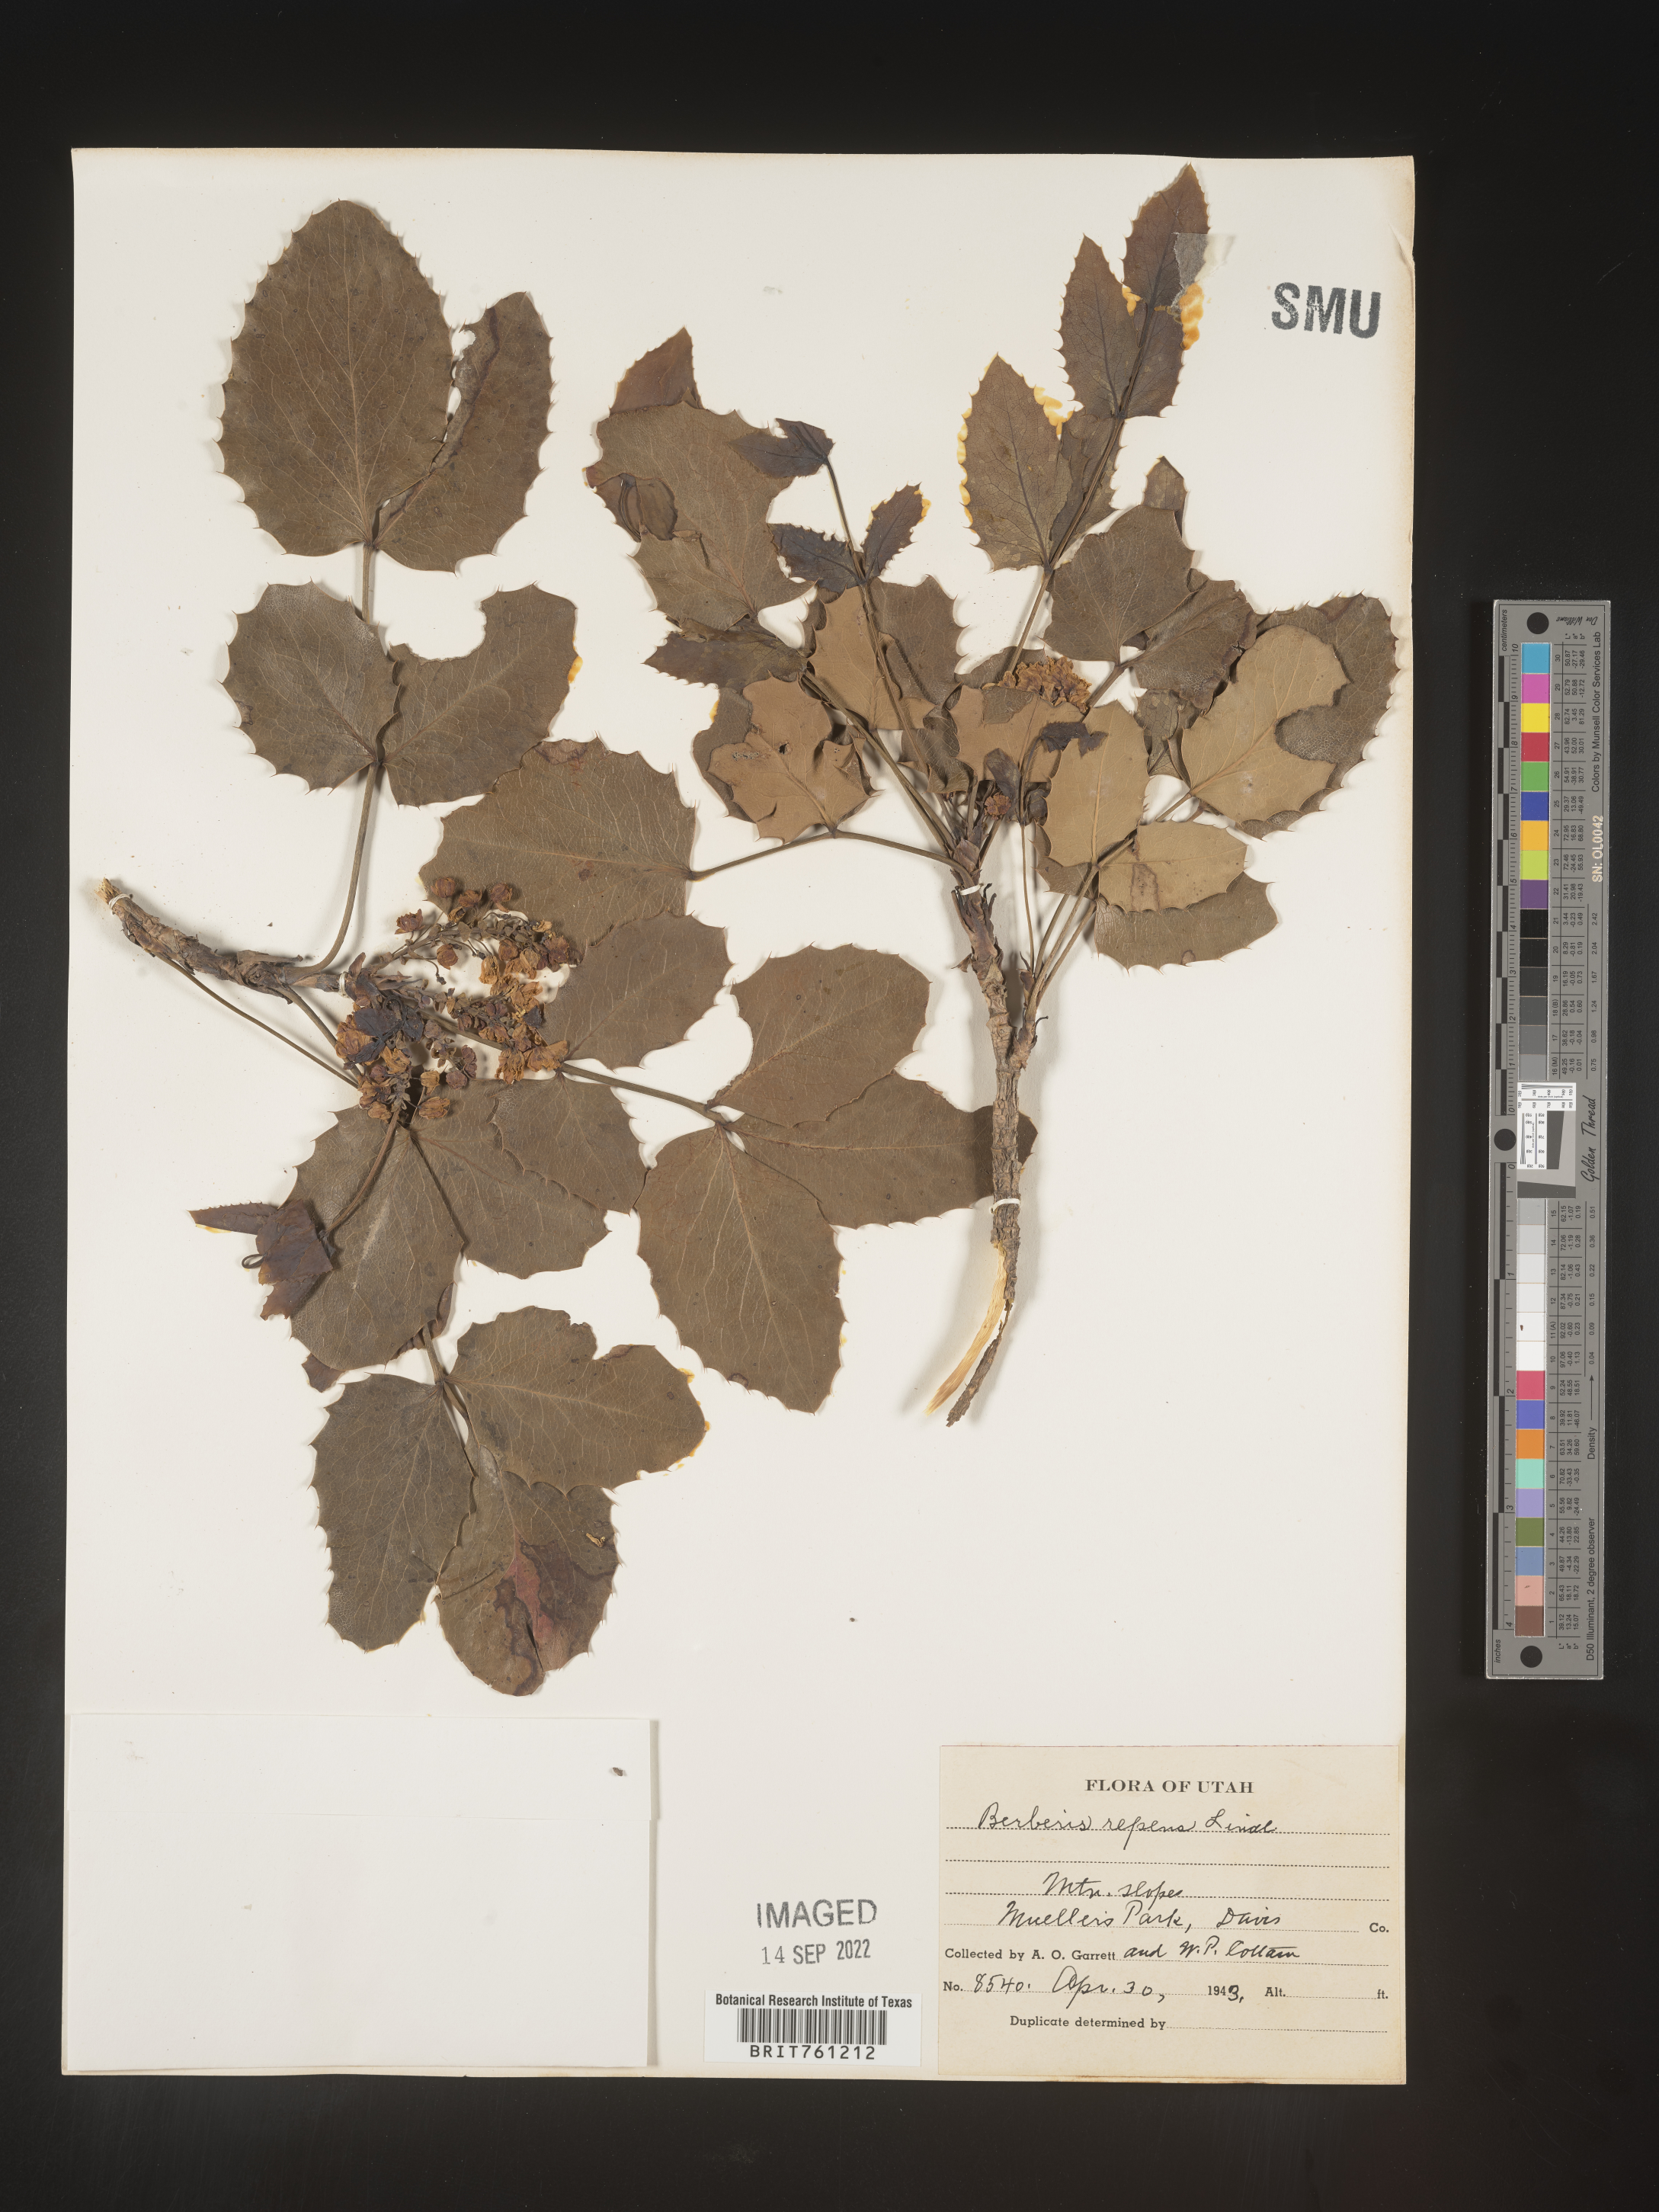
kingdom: Plantae
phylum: Tracheophyta
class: Magnoliopsida
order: Ranunculales
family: Berberidaceae
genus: Mahonia
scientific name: Mahonia repens
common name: Creeping oregon-grape
